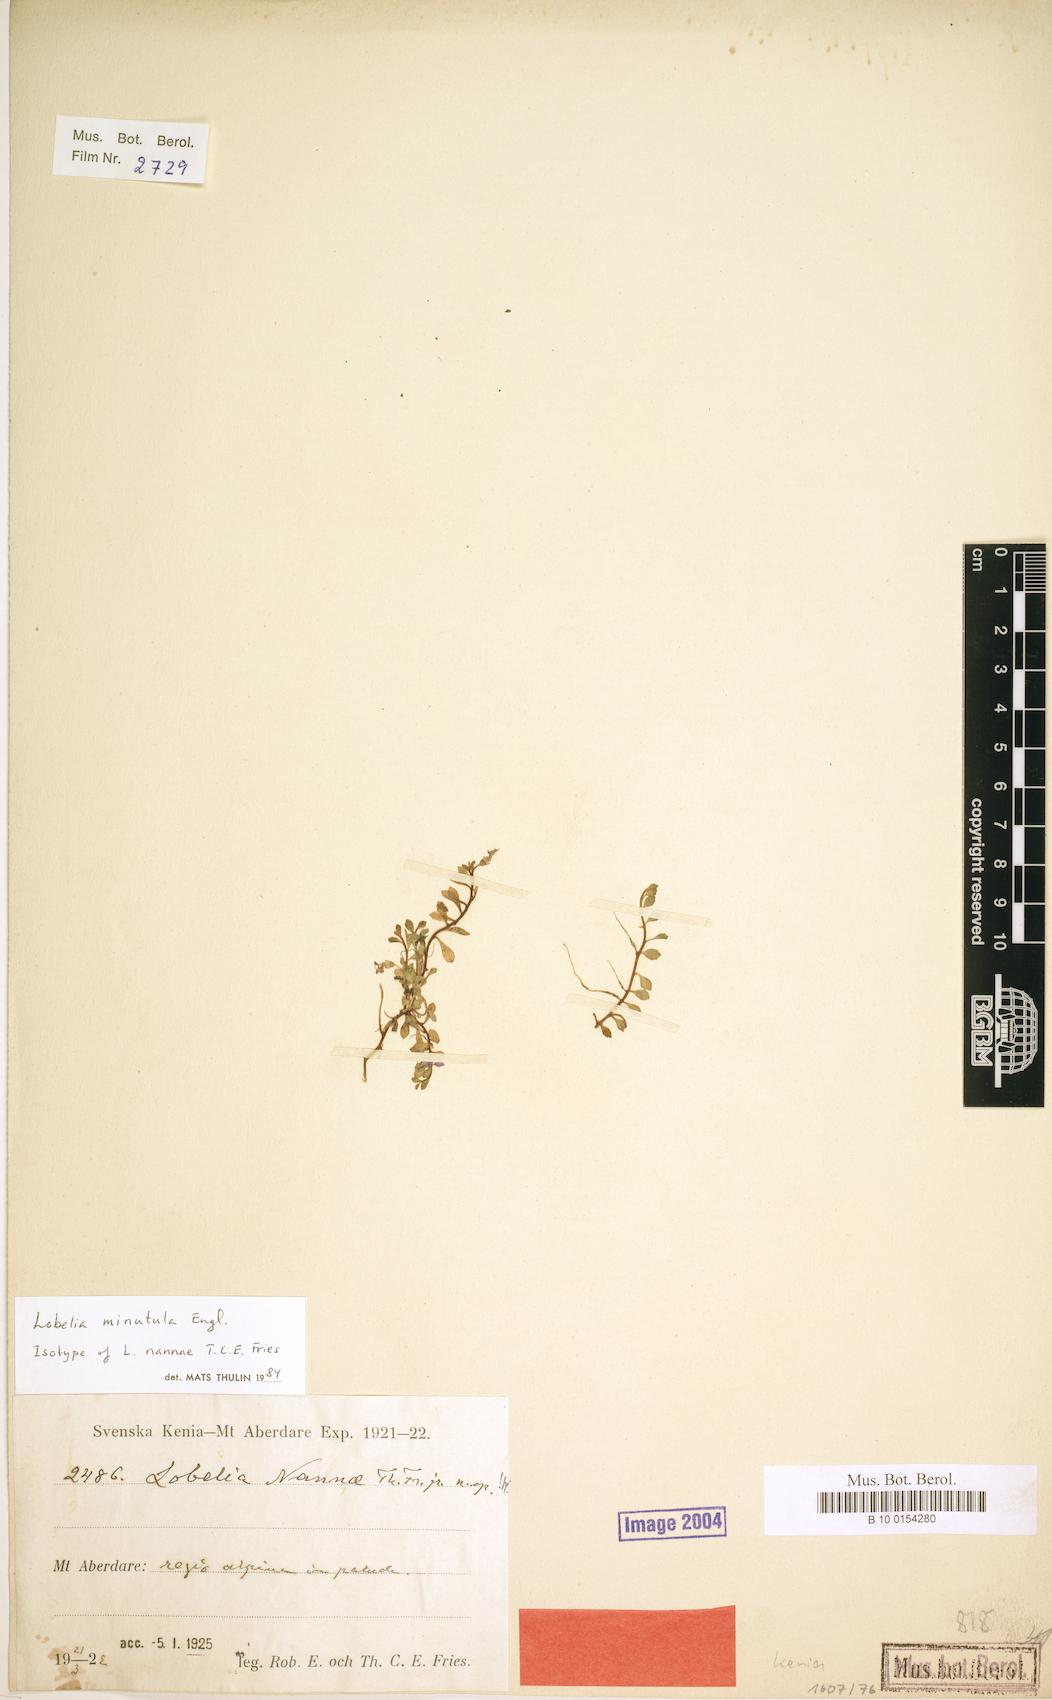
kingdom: Plantae
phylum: Tracheophyta
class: Magnoliopsida
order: Asterales
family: Campanulaceae
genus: Lobelia
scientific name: Lobelia minutula
